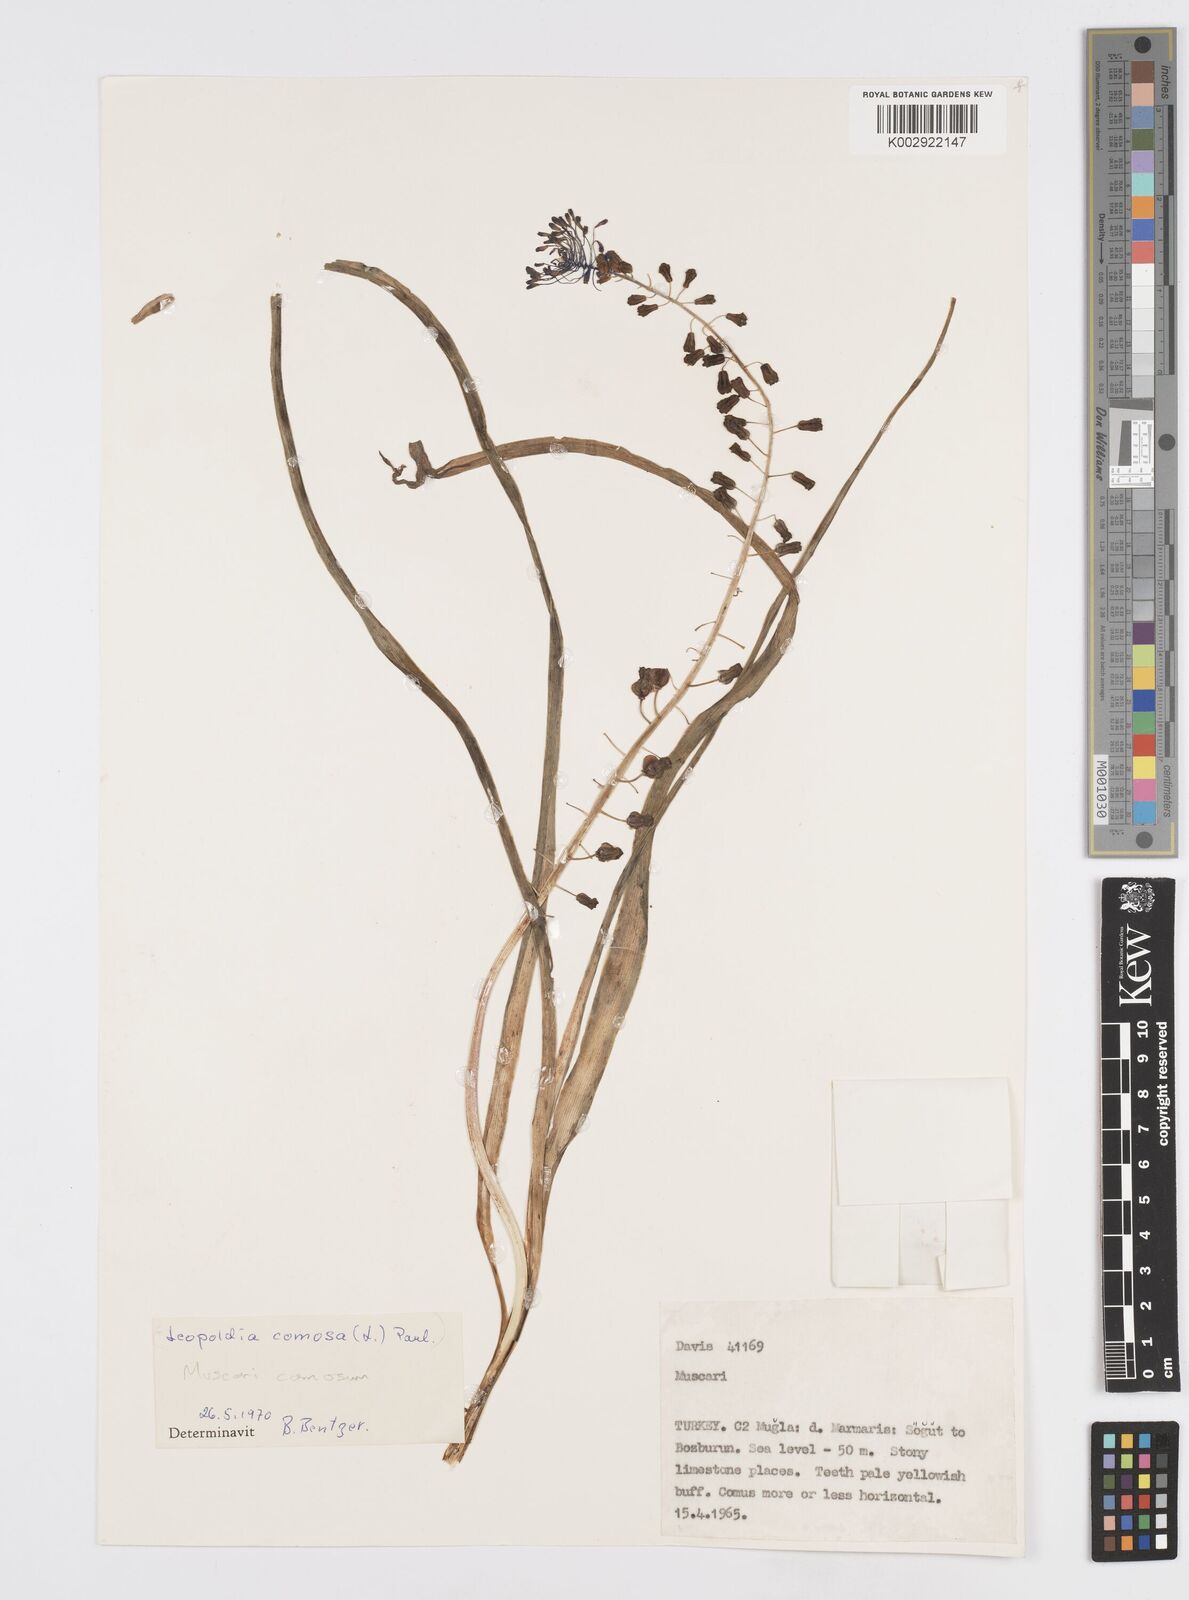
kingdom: Plantae
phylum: Tracheophyta
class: Liliopsida
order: Asparagales
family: Asparagaceae
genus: Muscari
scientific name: Muscari comosum
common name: Tassel hyacinth
